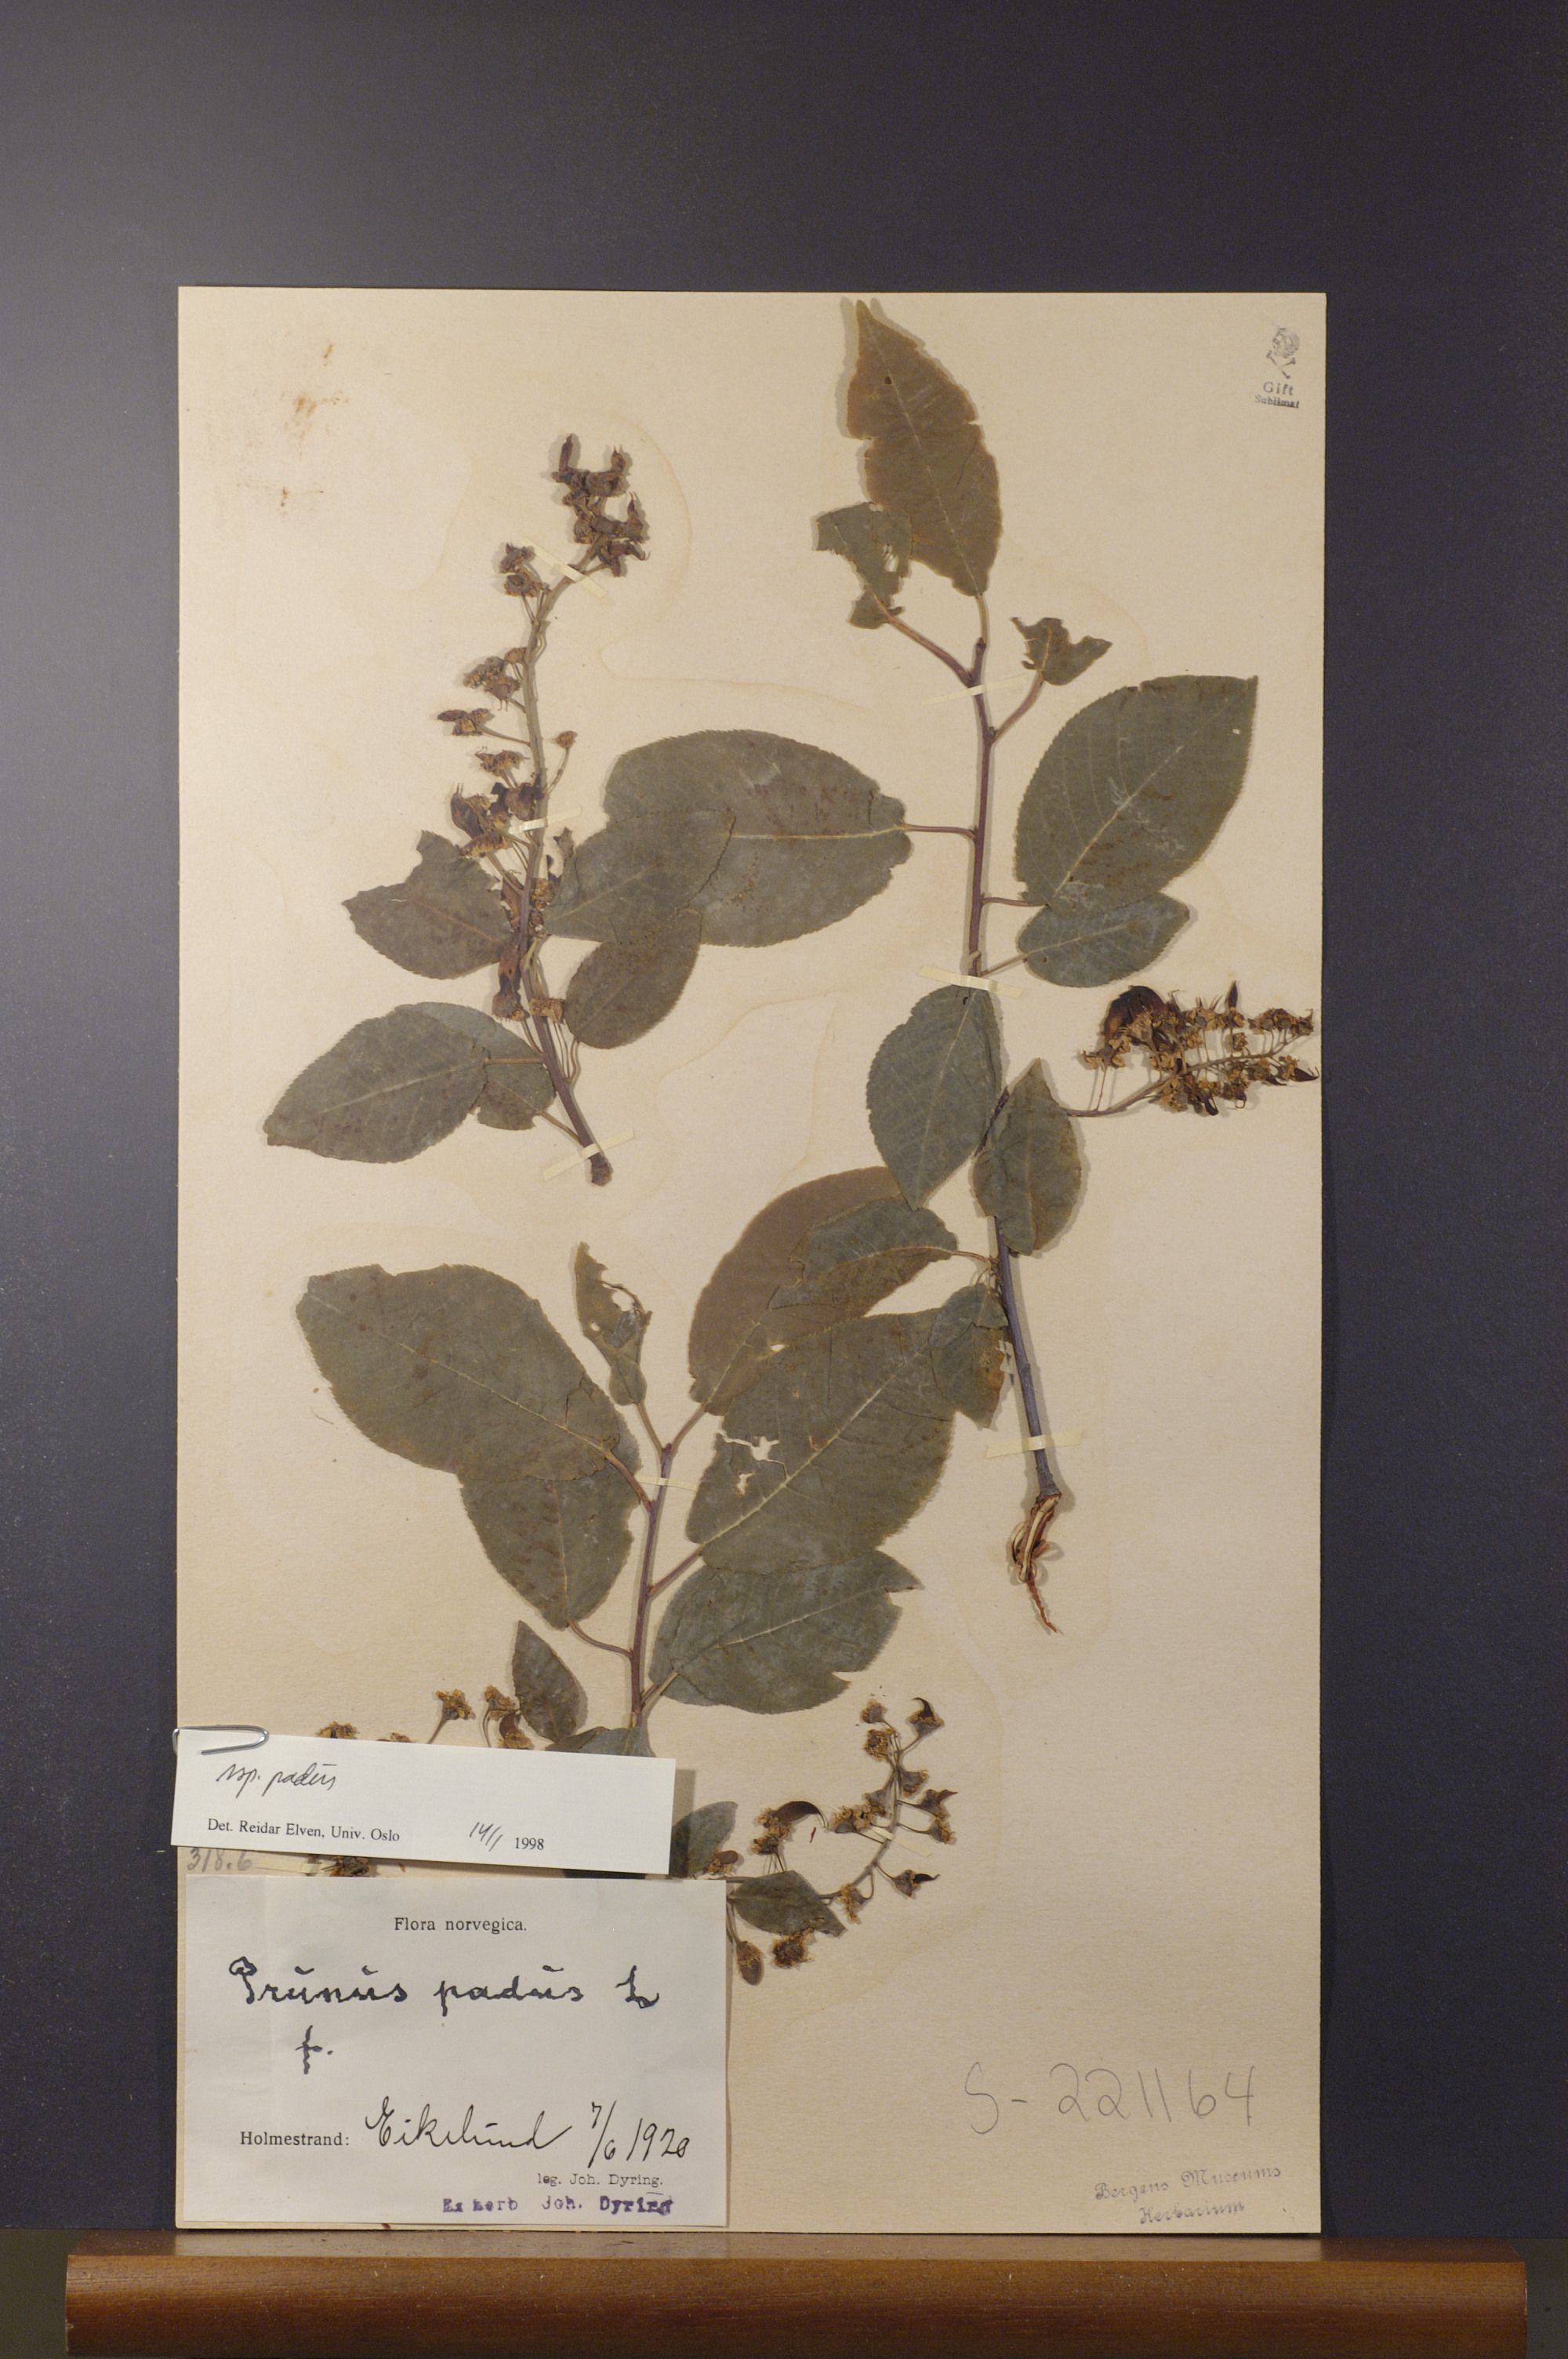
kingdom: Plantae
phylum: Tracheophyta
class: Magnoliopsida
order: Rosales
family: Rosaceae
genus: Prunus
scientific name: Prunus padus
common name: Bird cherry
